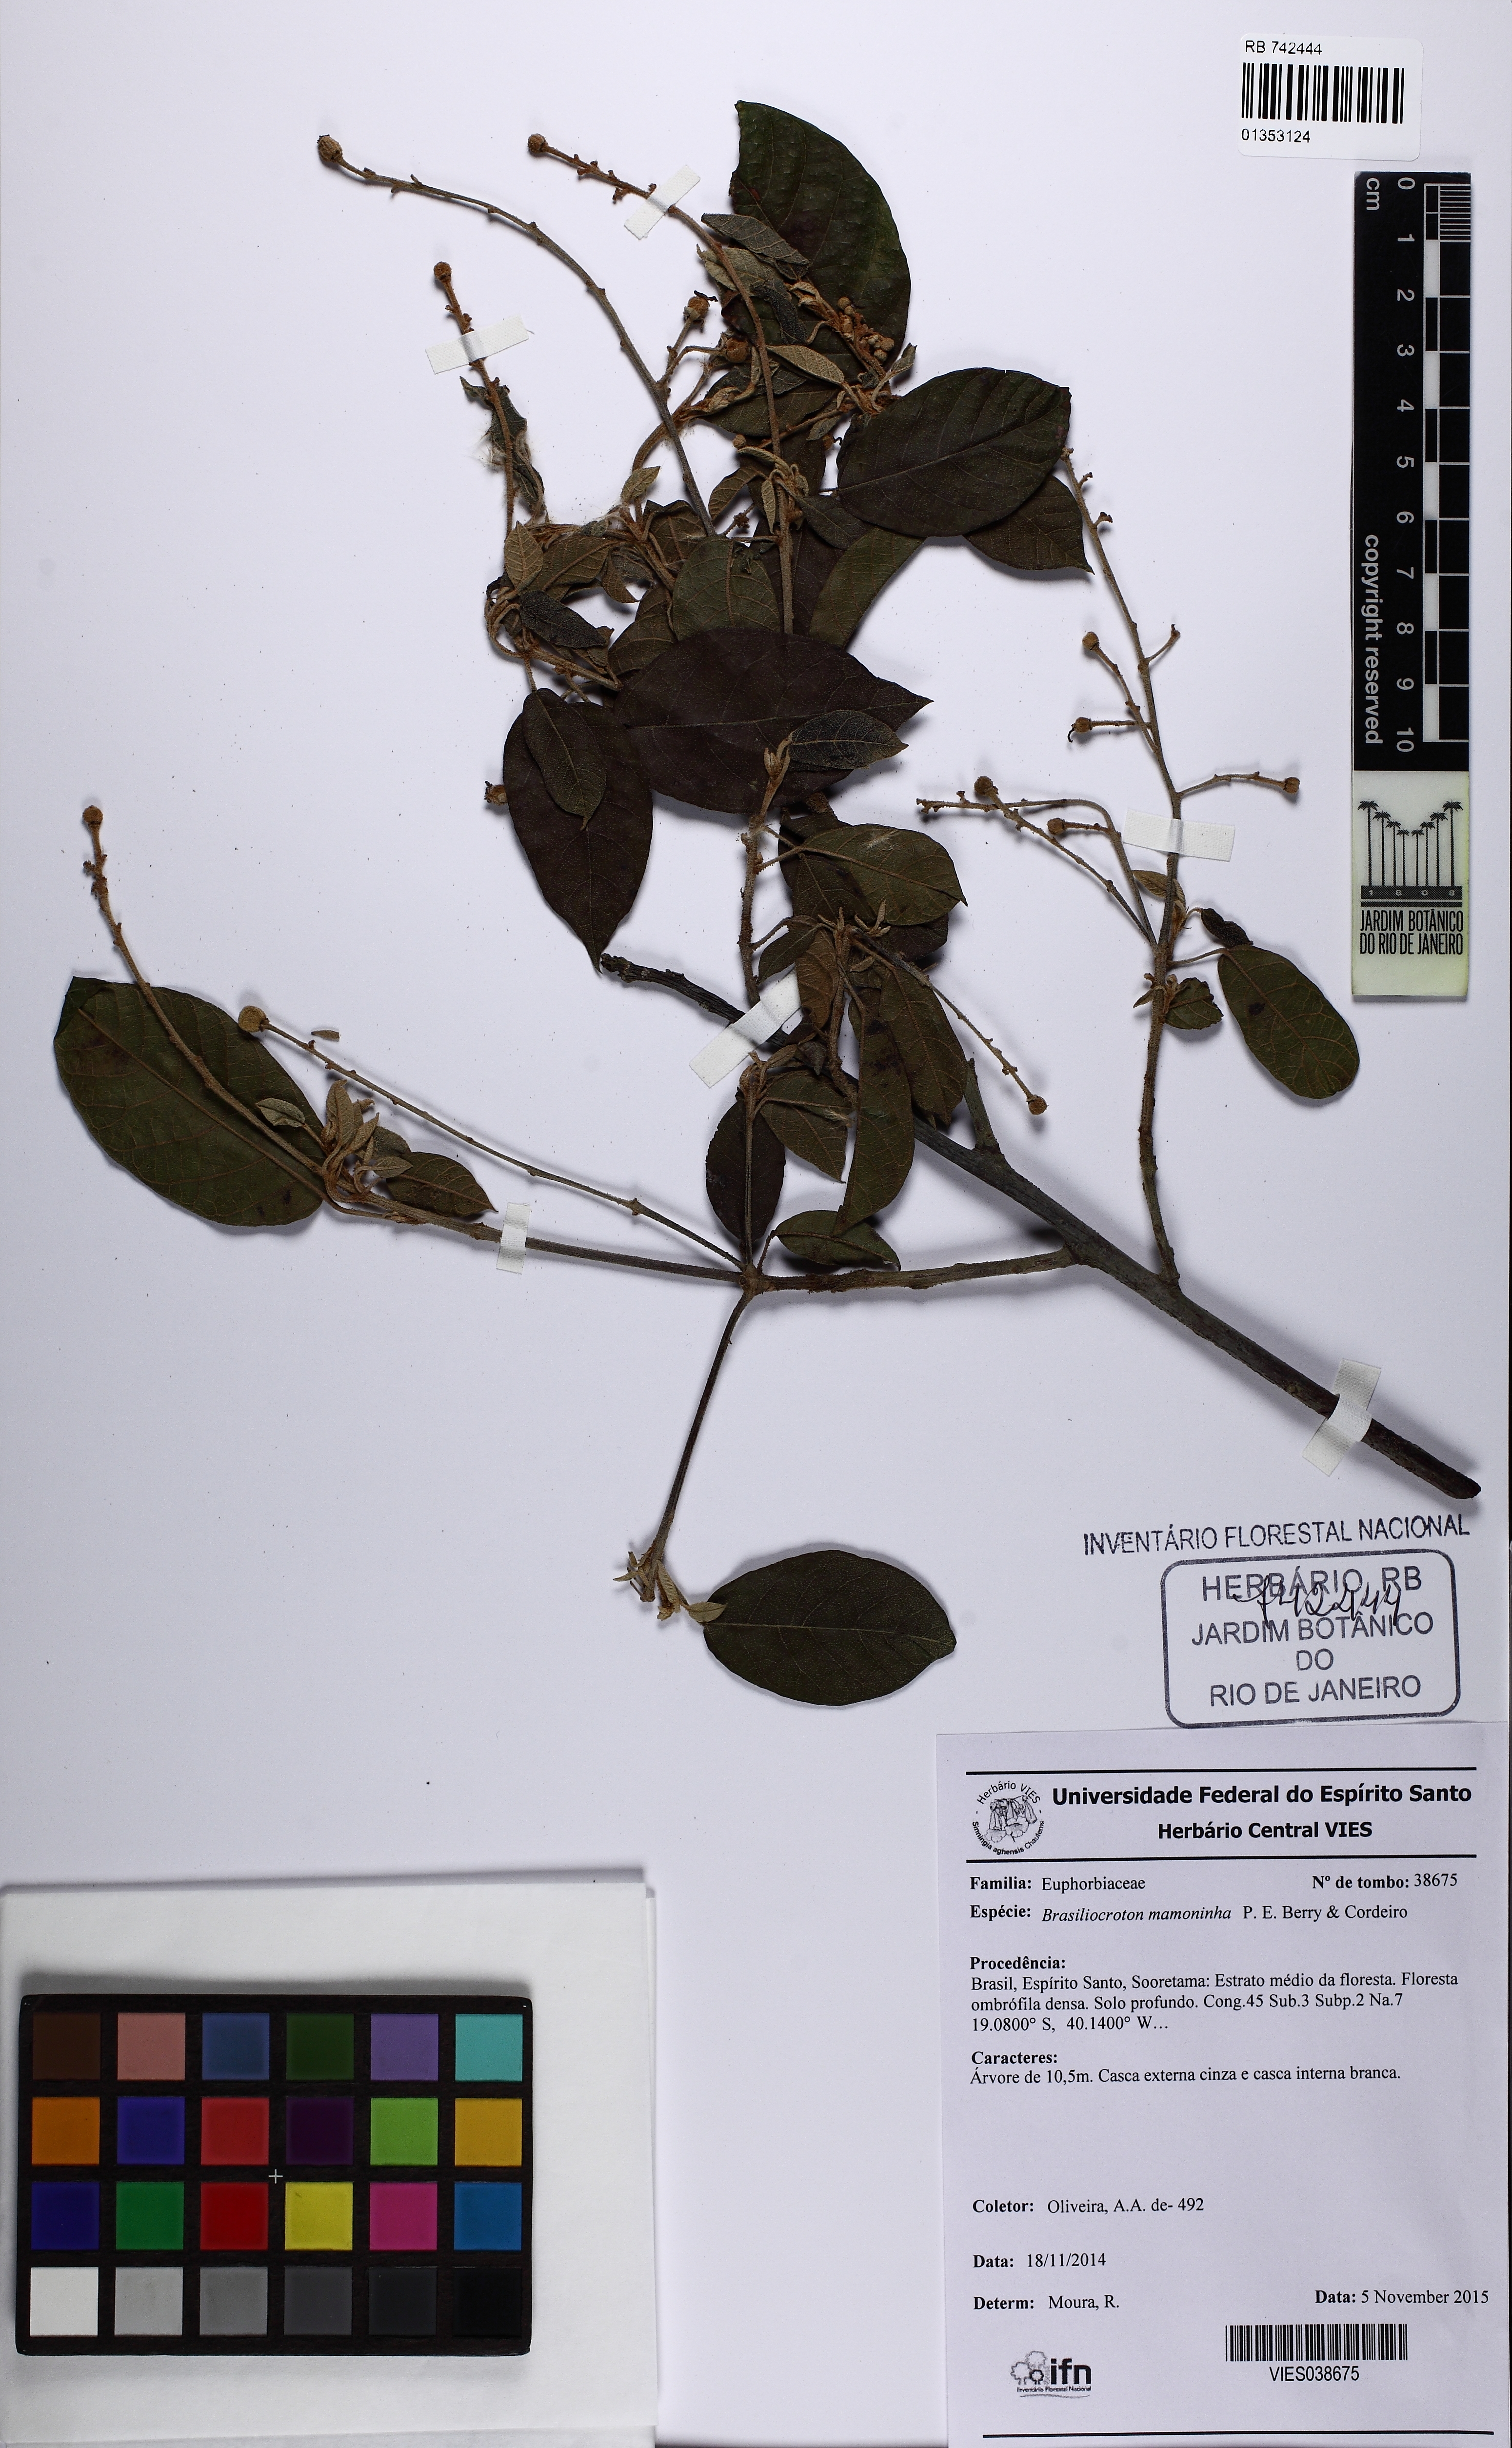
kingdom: Plantae
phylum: Tracheophyta
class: Magnoliopsida
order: Malpighiales
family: Euphorbiaceae
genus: Brasiliocroton
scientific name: Brasiliocroton mamoninha
